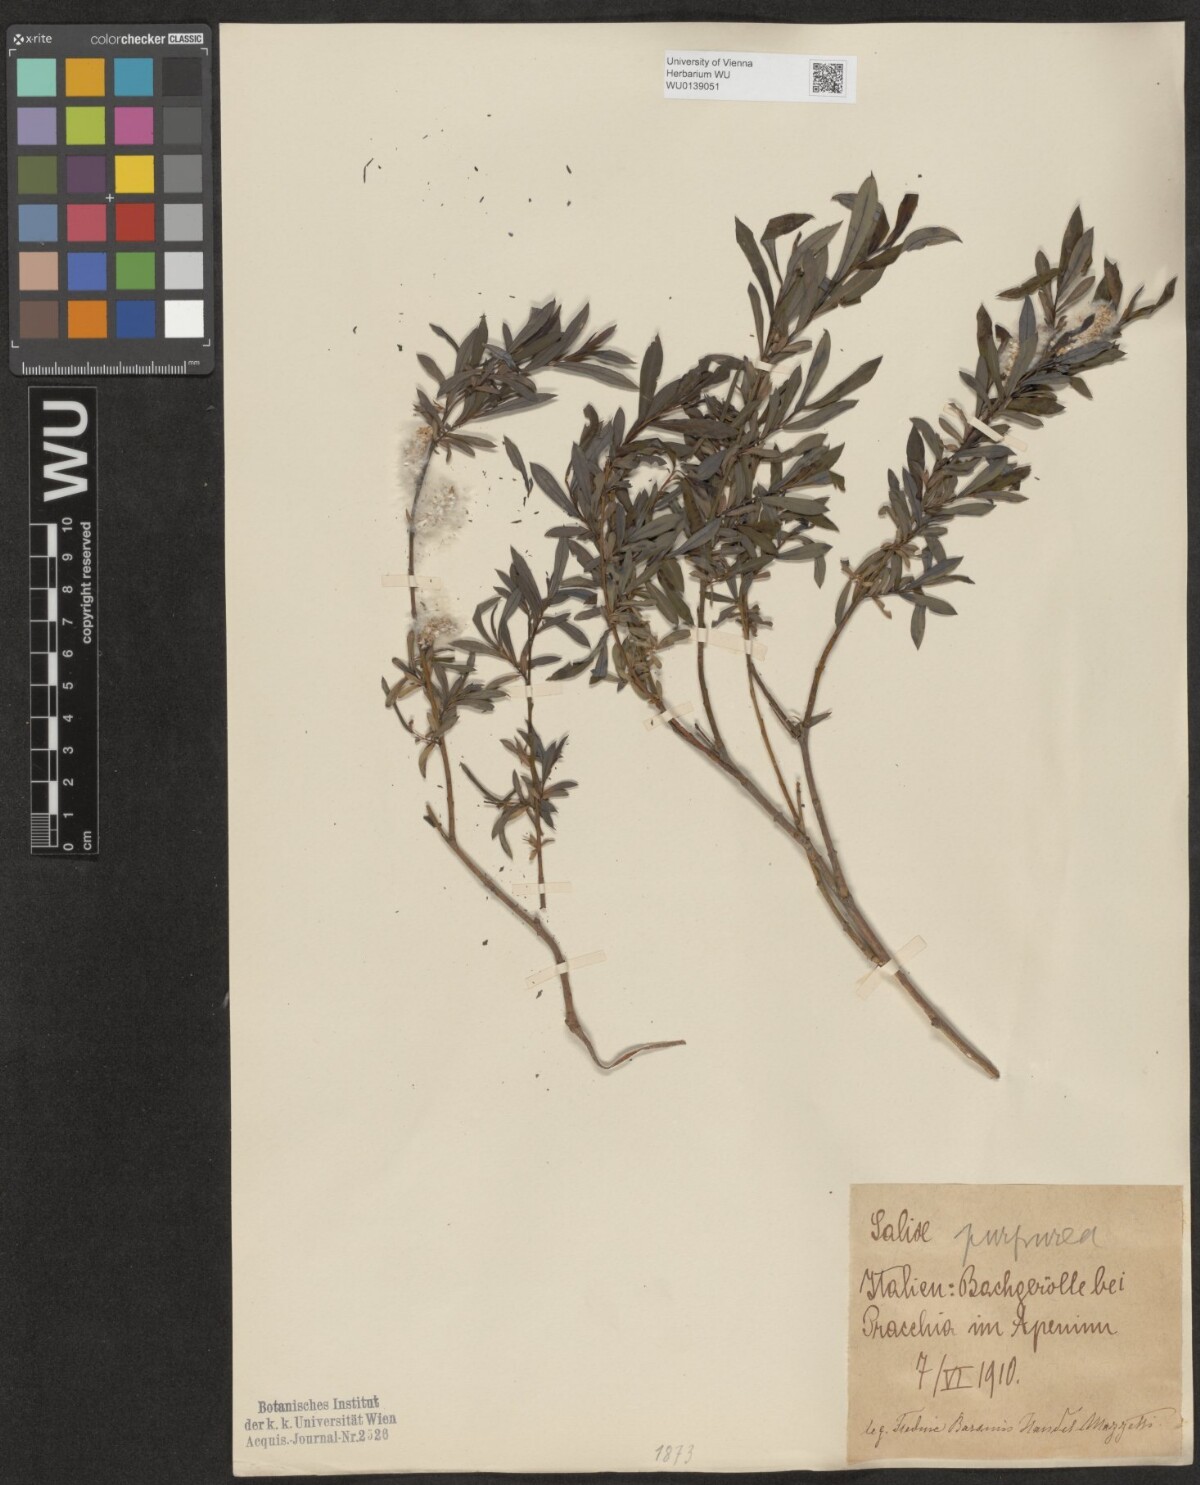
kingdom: Plantae
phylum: Tracheophyta
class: Magnoliopsida
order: Malpighiales
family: Salicaceae
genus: Salix
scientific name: Salix purpurea
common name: Purple willow
